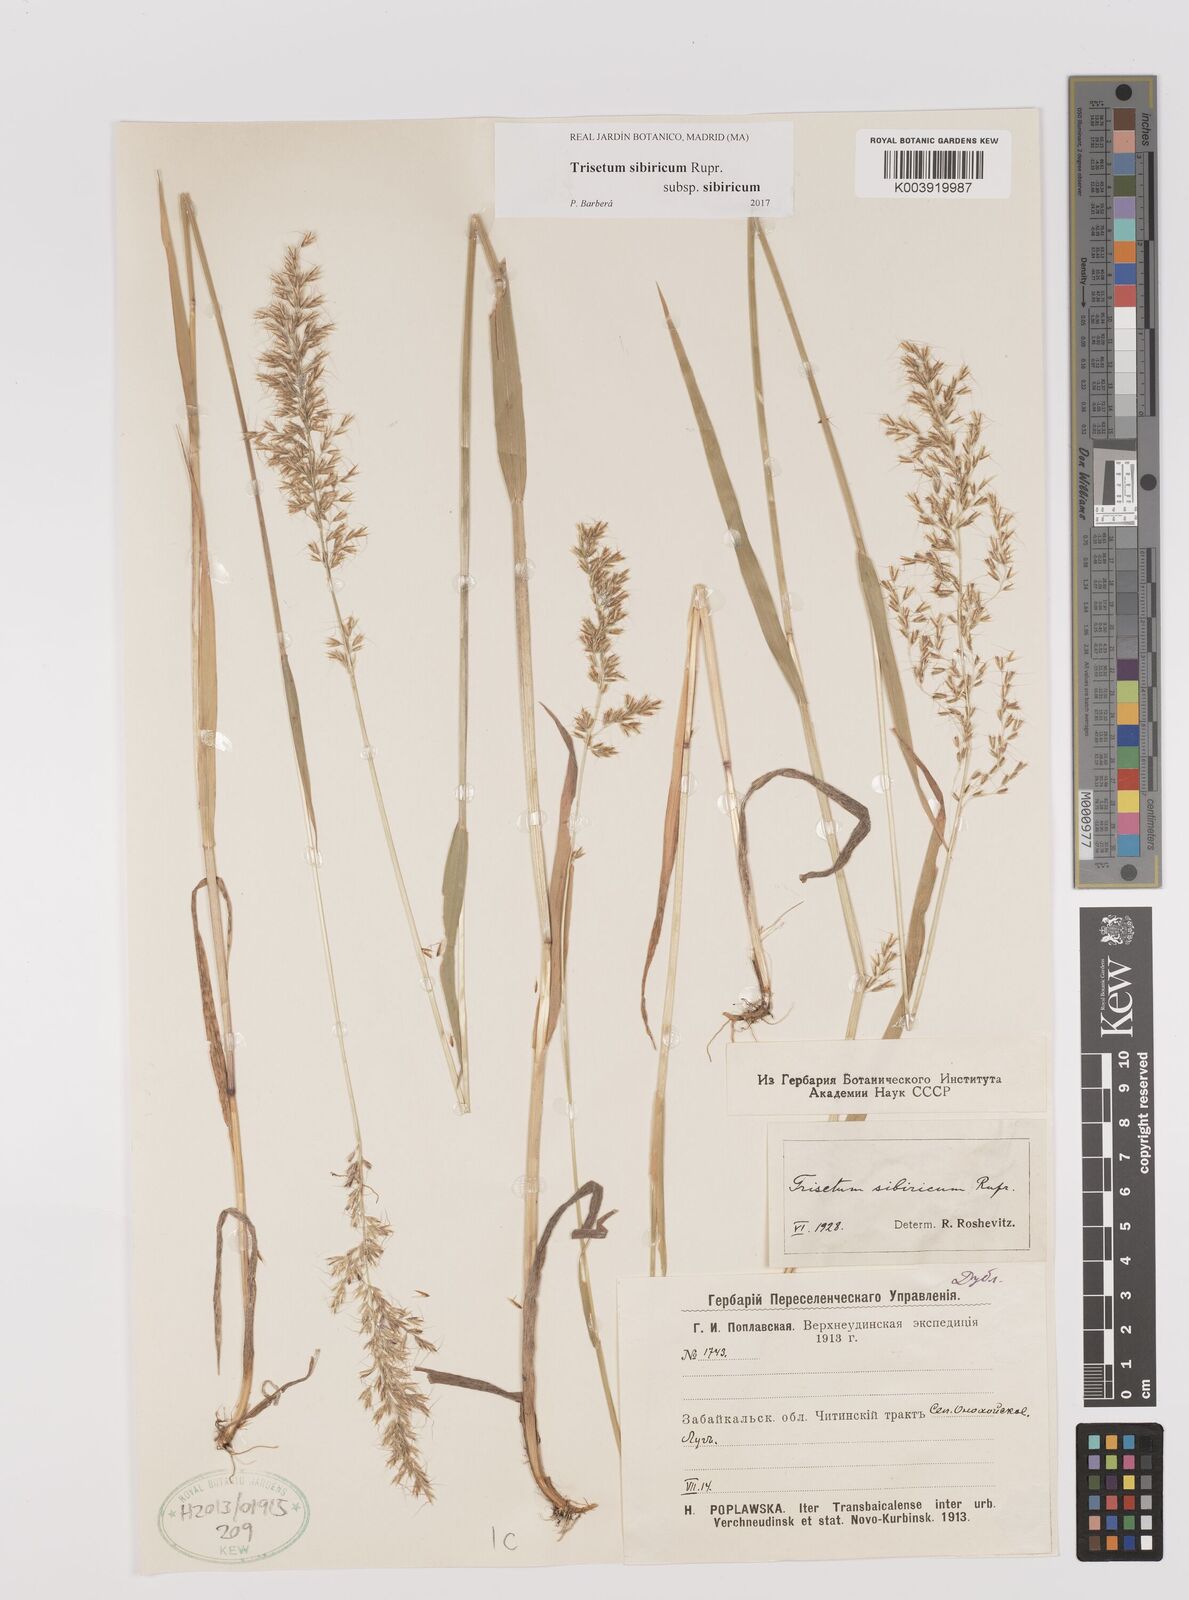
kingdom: Plantae
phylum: Tracheophyta
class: Liliopsida
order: Poales
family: Poaceae
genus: Sibirotrisetum
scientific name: Sibirotrisetum sibiricum
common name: Siberian false oat
